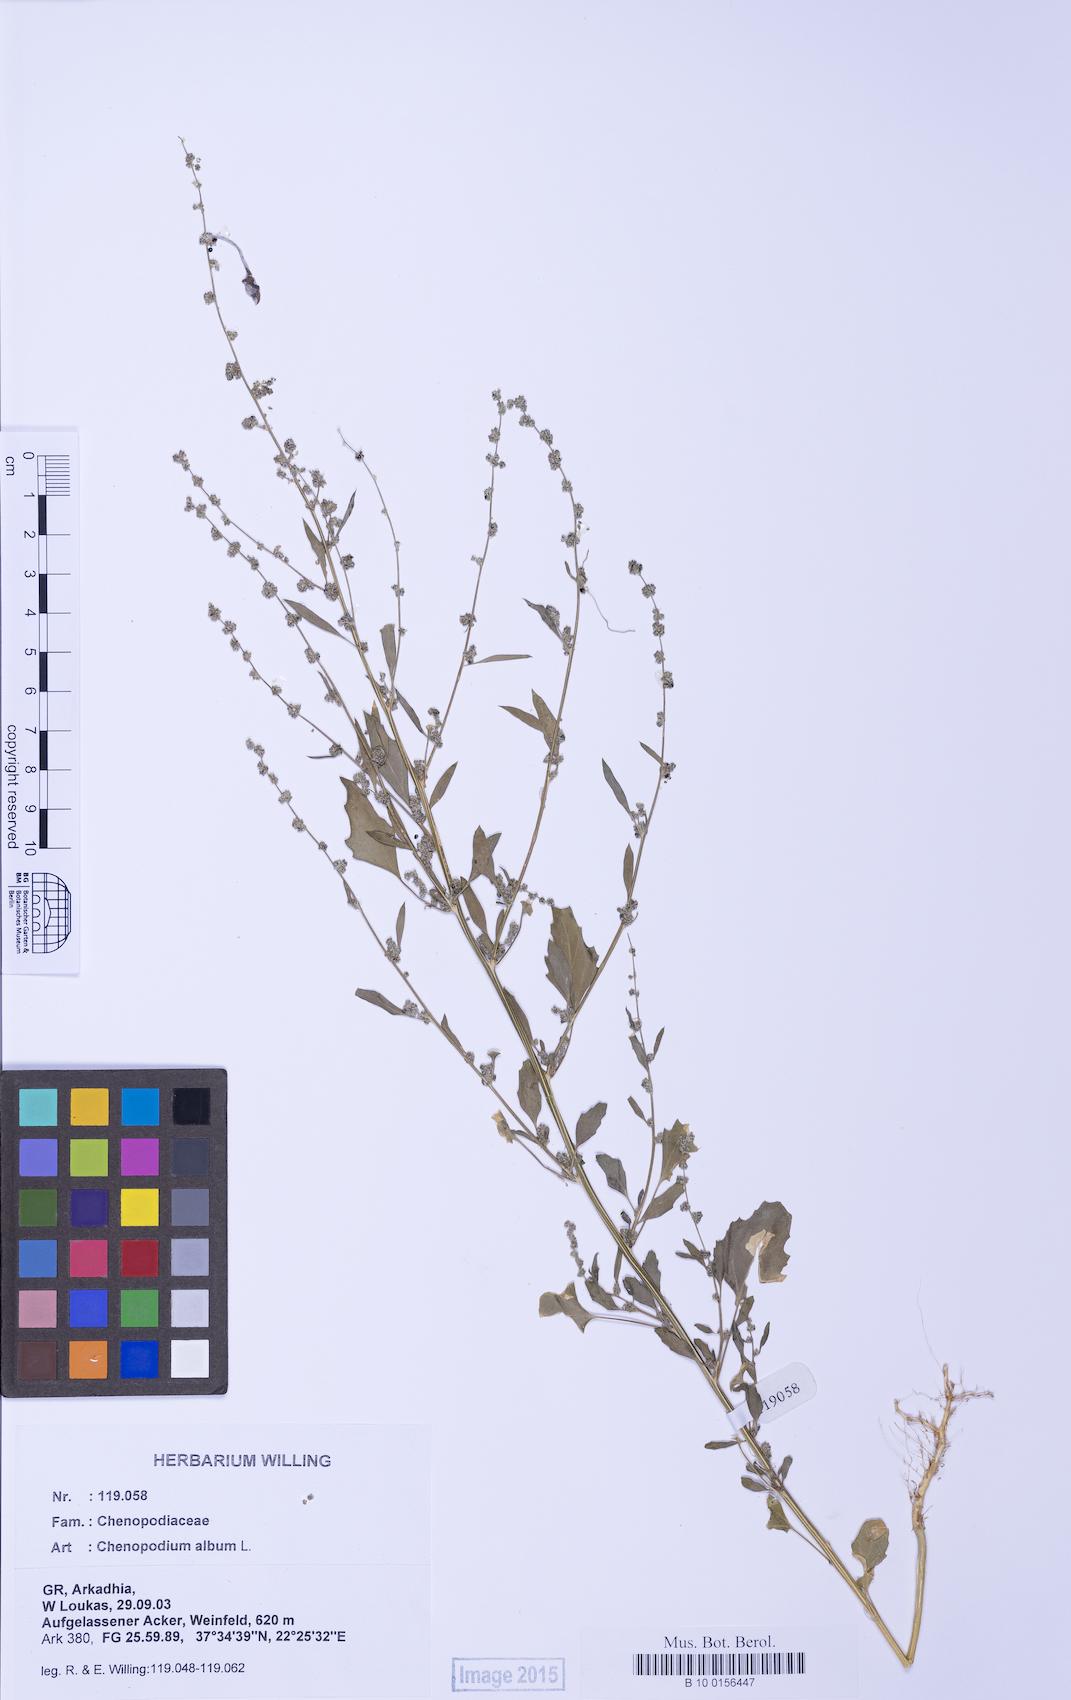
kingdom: Plantae
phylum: Tracheophyta
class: Magnoliopsida
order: Caryophyllales
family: Amaranthaceae
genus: Chenopodium
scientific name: Chenopodium album
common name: Fat-hen
